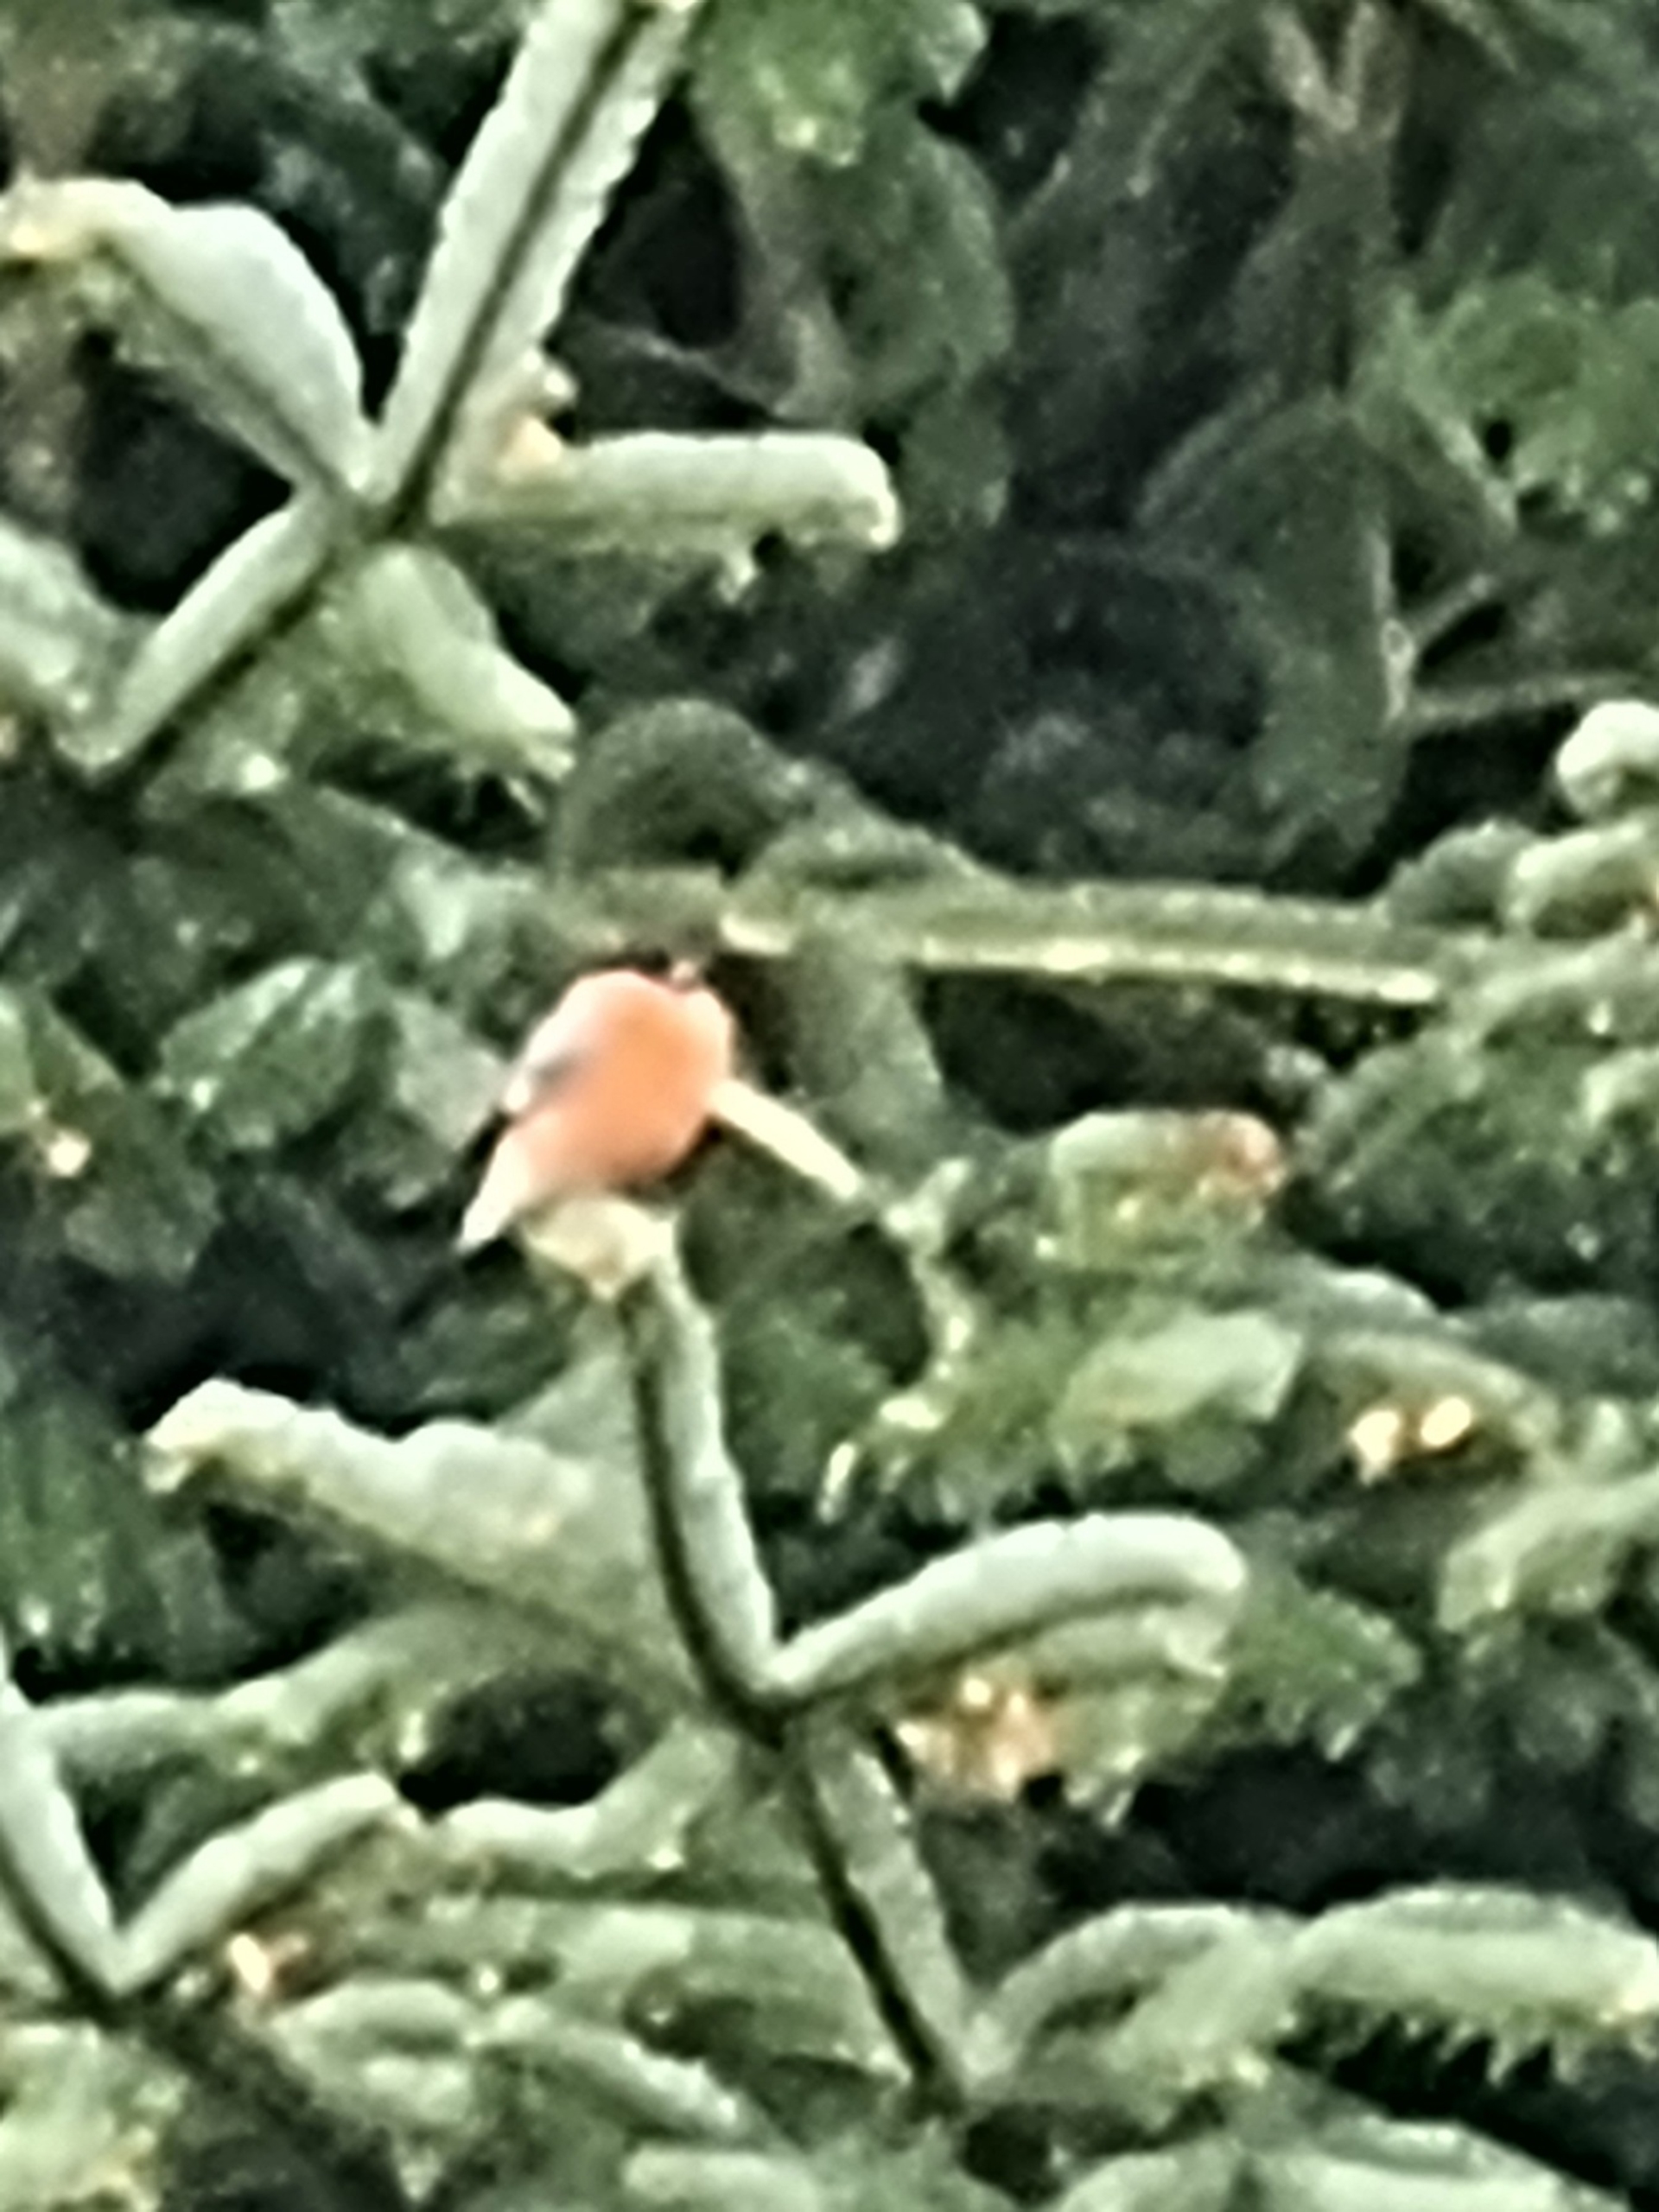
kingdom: Animalia
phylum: Chordata
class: Aves
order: Passeriformes
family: Fringillidae
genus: Pyrrhula
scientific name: Pyrrhula pyrrhula
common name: Dompap
